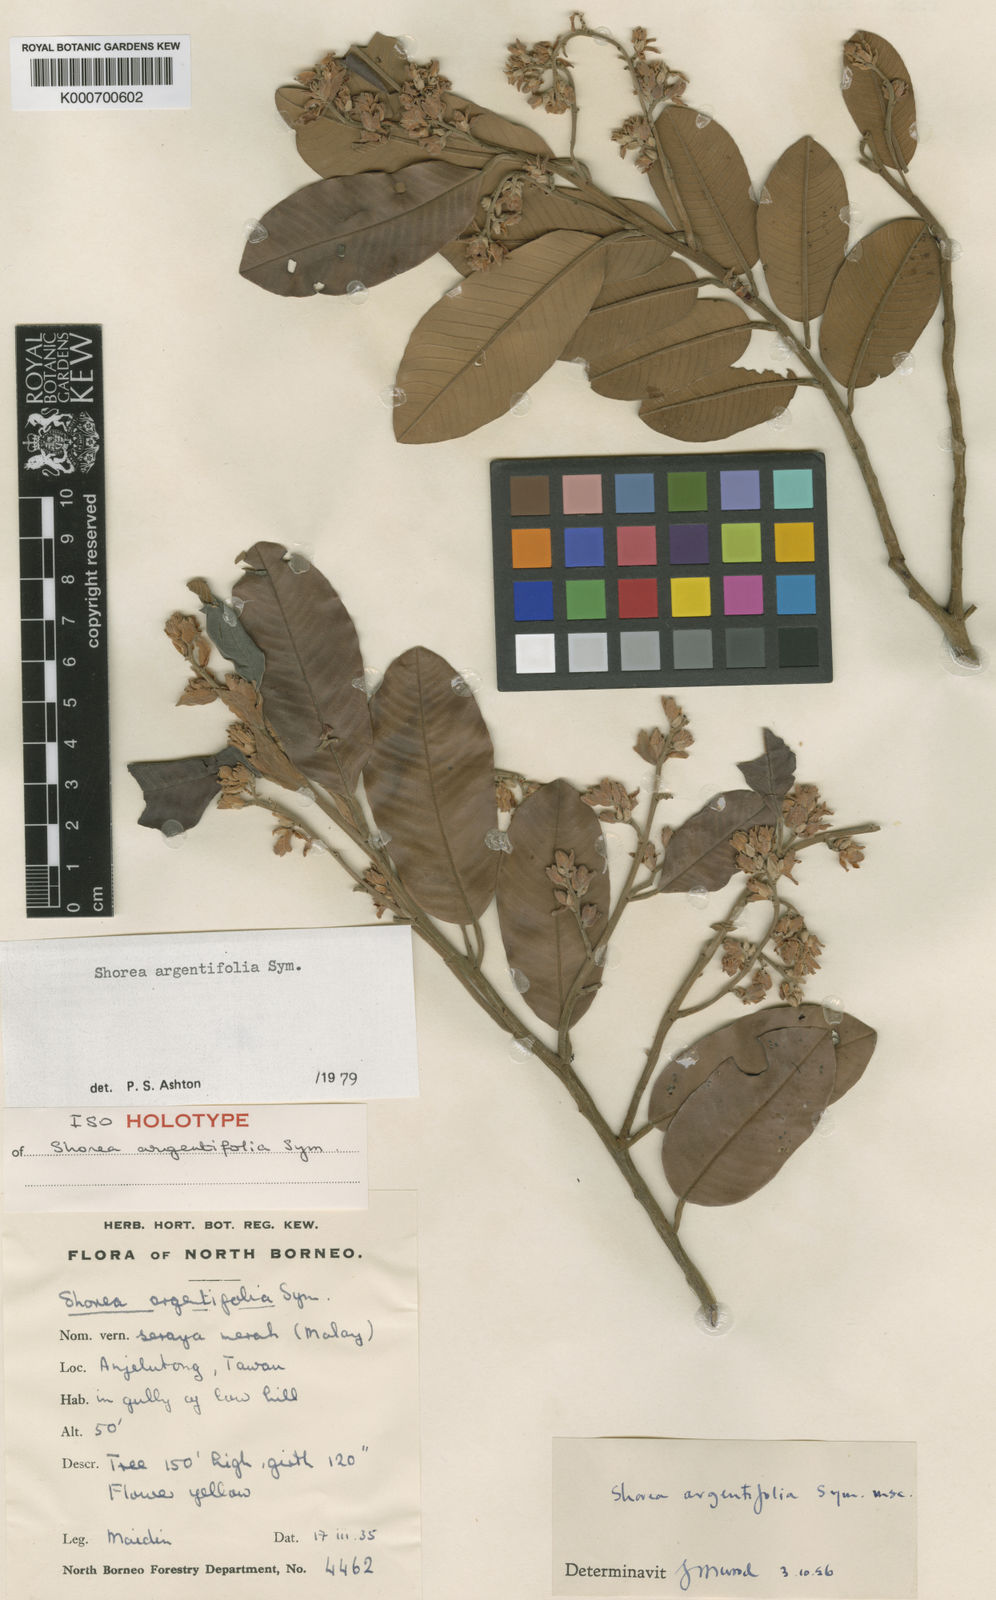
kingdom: Plantae
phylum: Tracheophyta
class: Magnoliopsida
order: Malvales
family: Dipterocarpaceae
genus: Shorea
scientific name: Shorea argentifolia
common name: Dark red meranti
